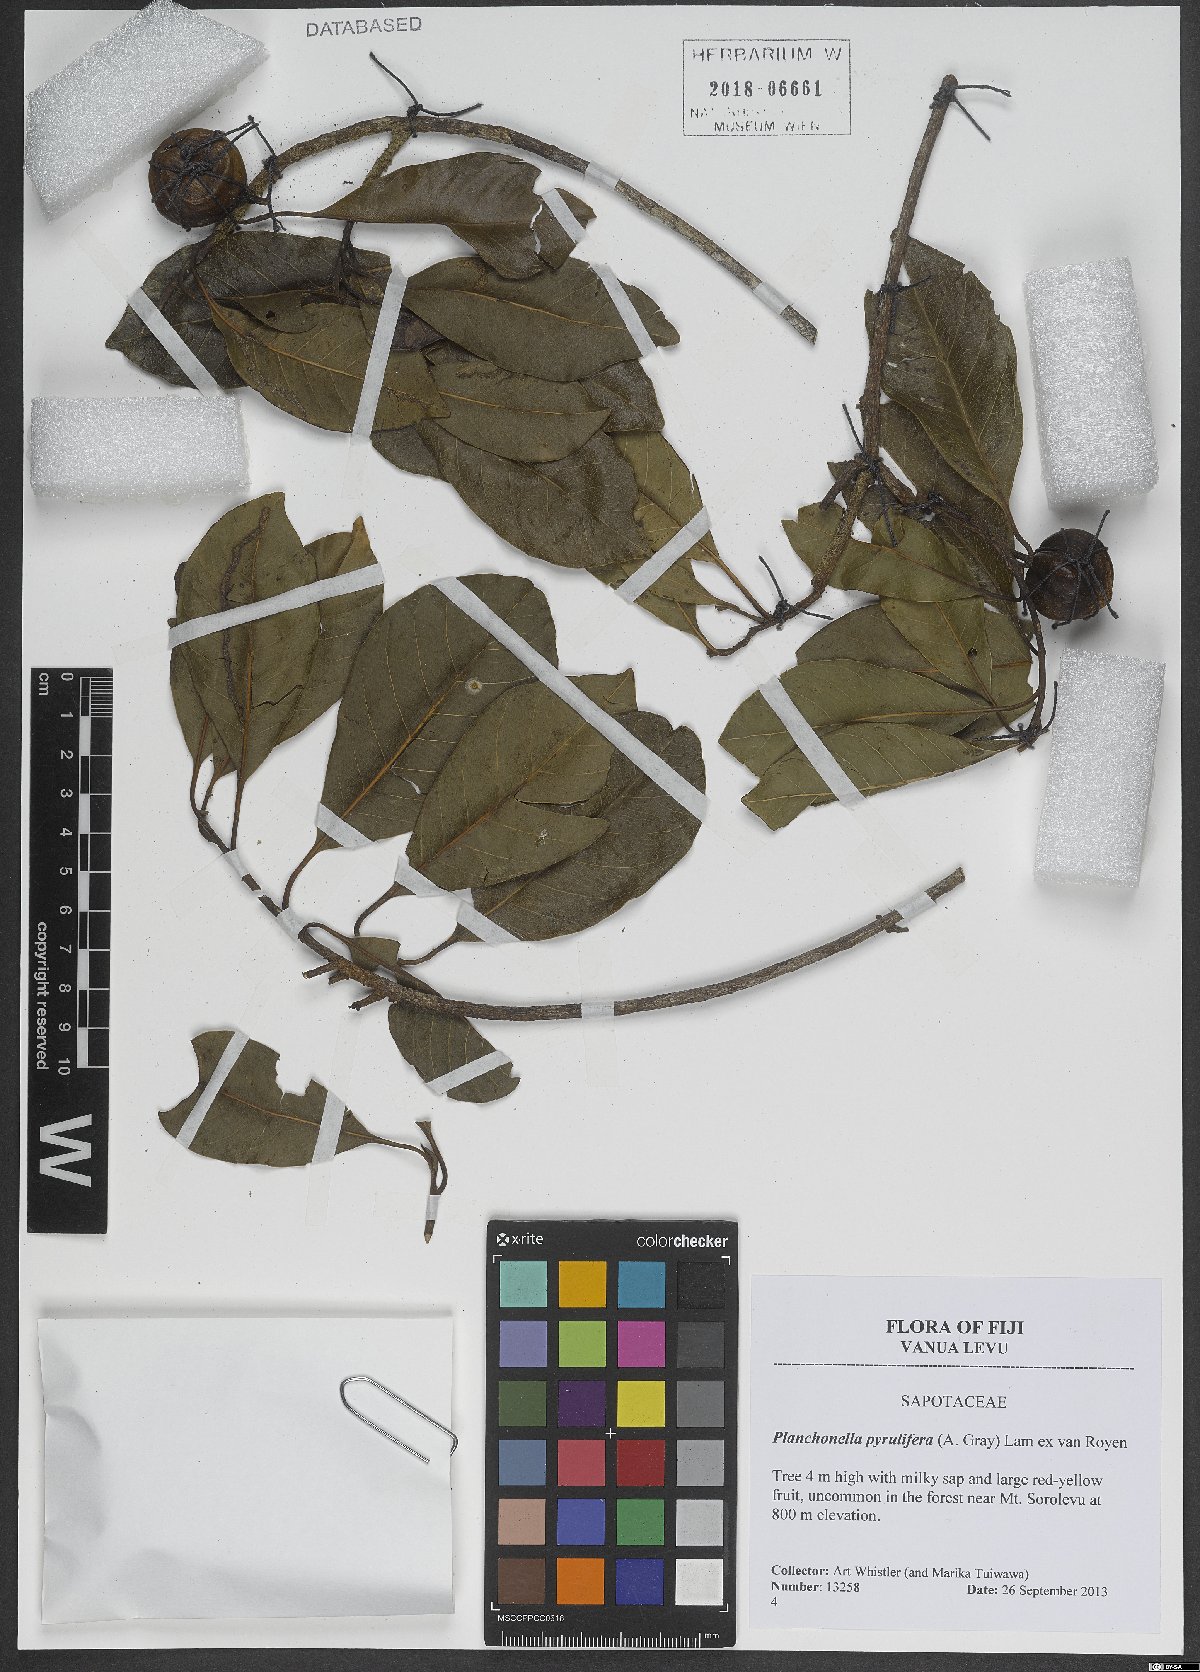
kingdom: Plantae
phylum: Tracheophyta
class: Magnoliopsida
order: Ericales
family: Sapotaceae
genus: Planchonella
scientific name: Planchonella pyrulifera
